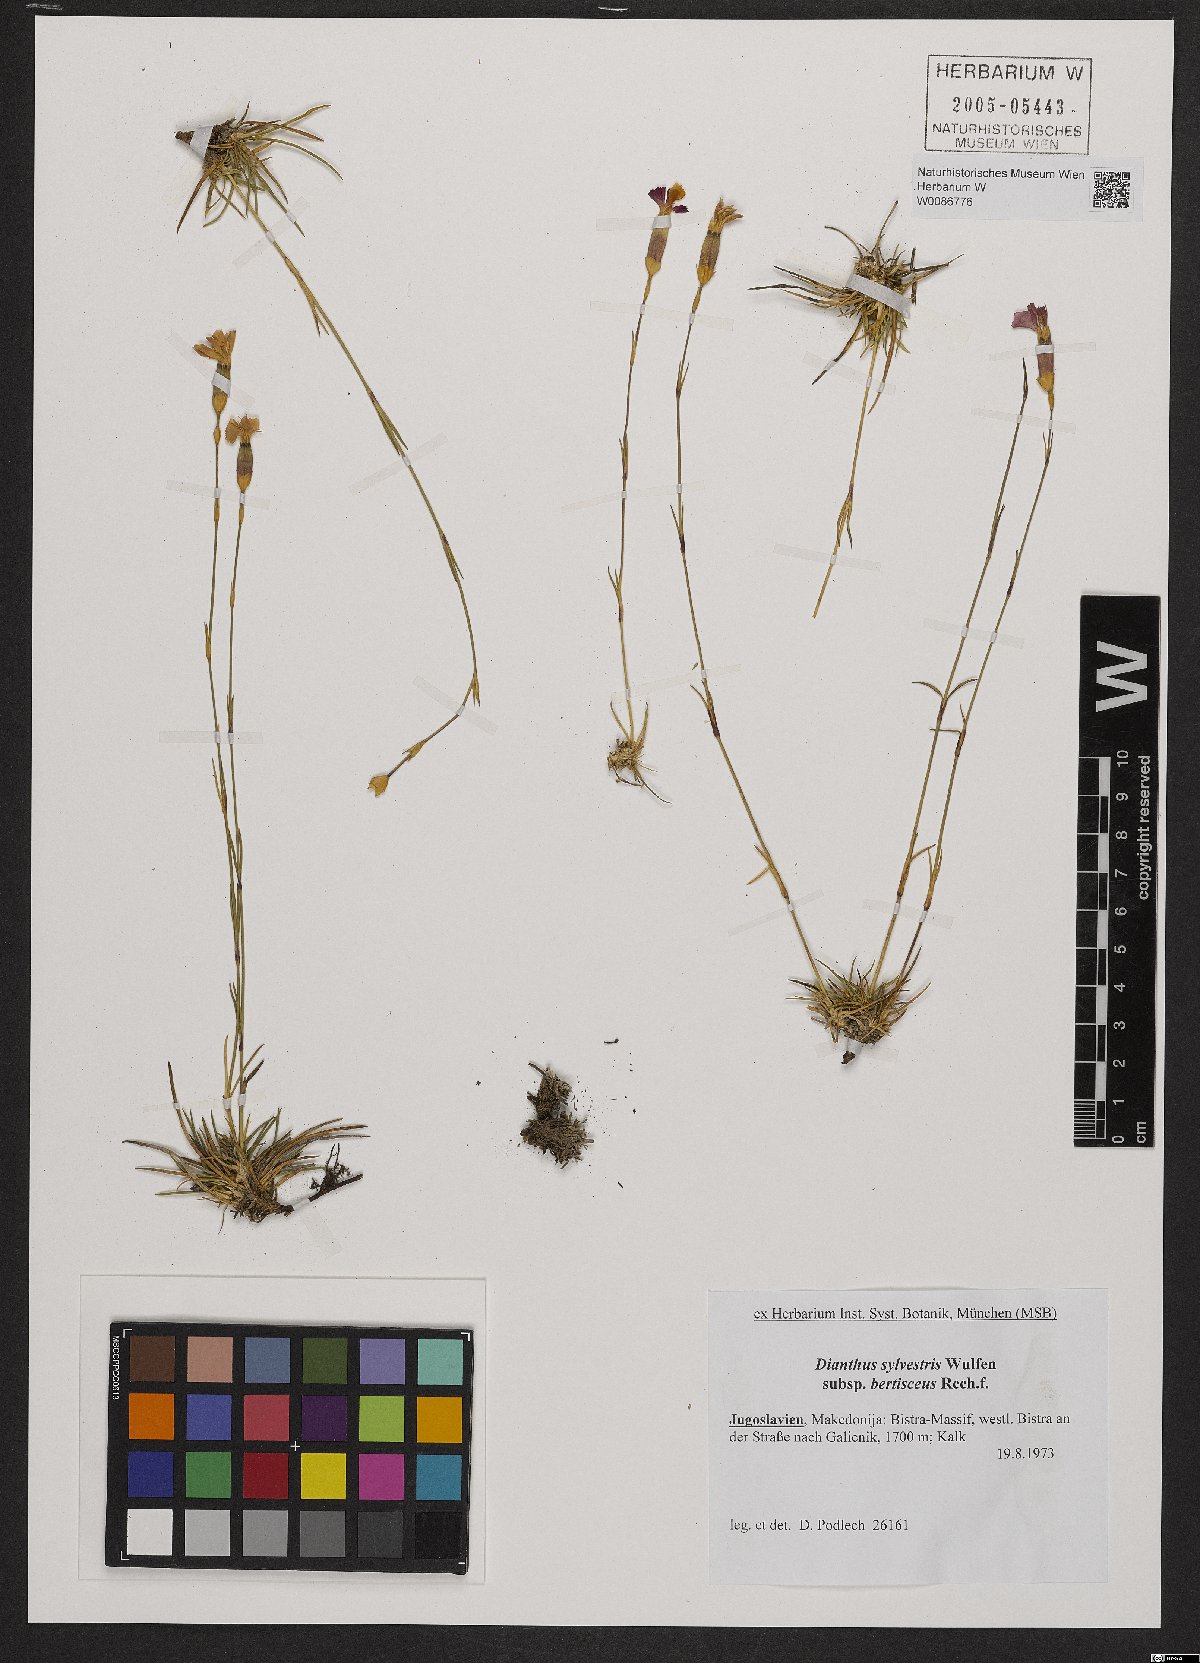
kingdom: Plantae
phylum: Tracheophyta
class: Magnoliopsida
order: Caryophyllales
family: Caryophyllaceae
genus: Dianthus
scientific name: Dianthus sylvestris
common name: Wood pink
